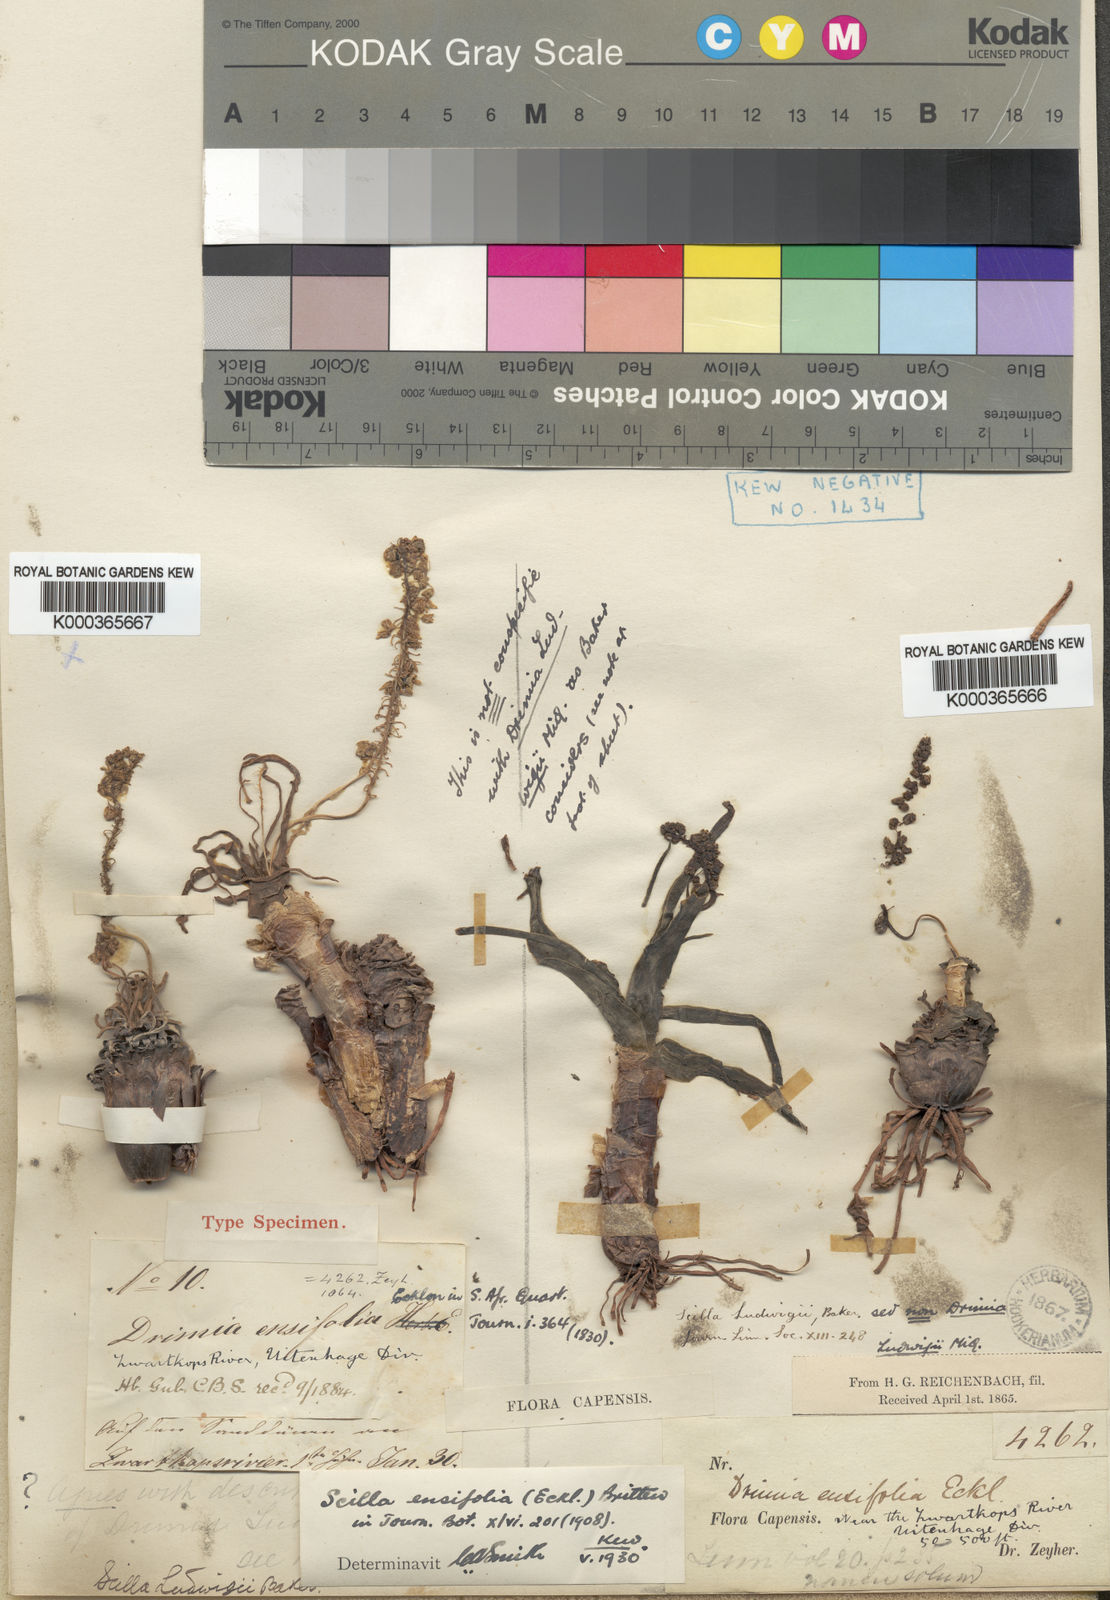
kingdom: Plantae
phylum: Tracheophyta
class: Liliopsida
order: Asparagales
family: Asparagaceae
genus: Ledebouria
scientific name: Ledebouria undulata
